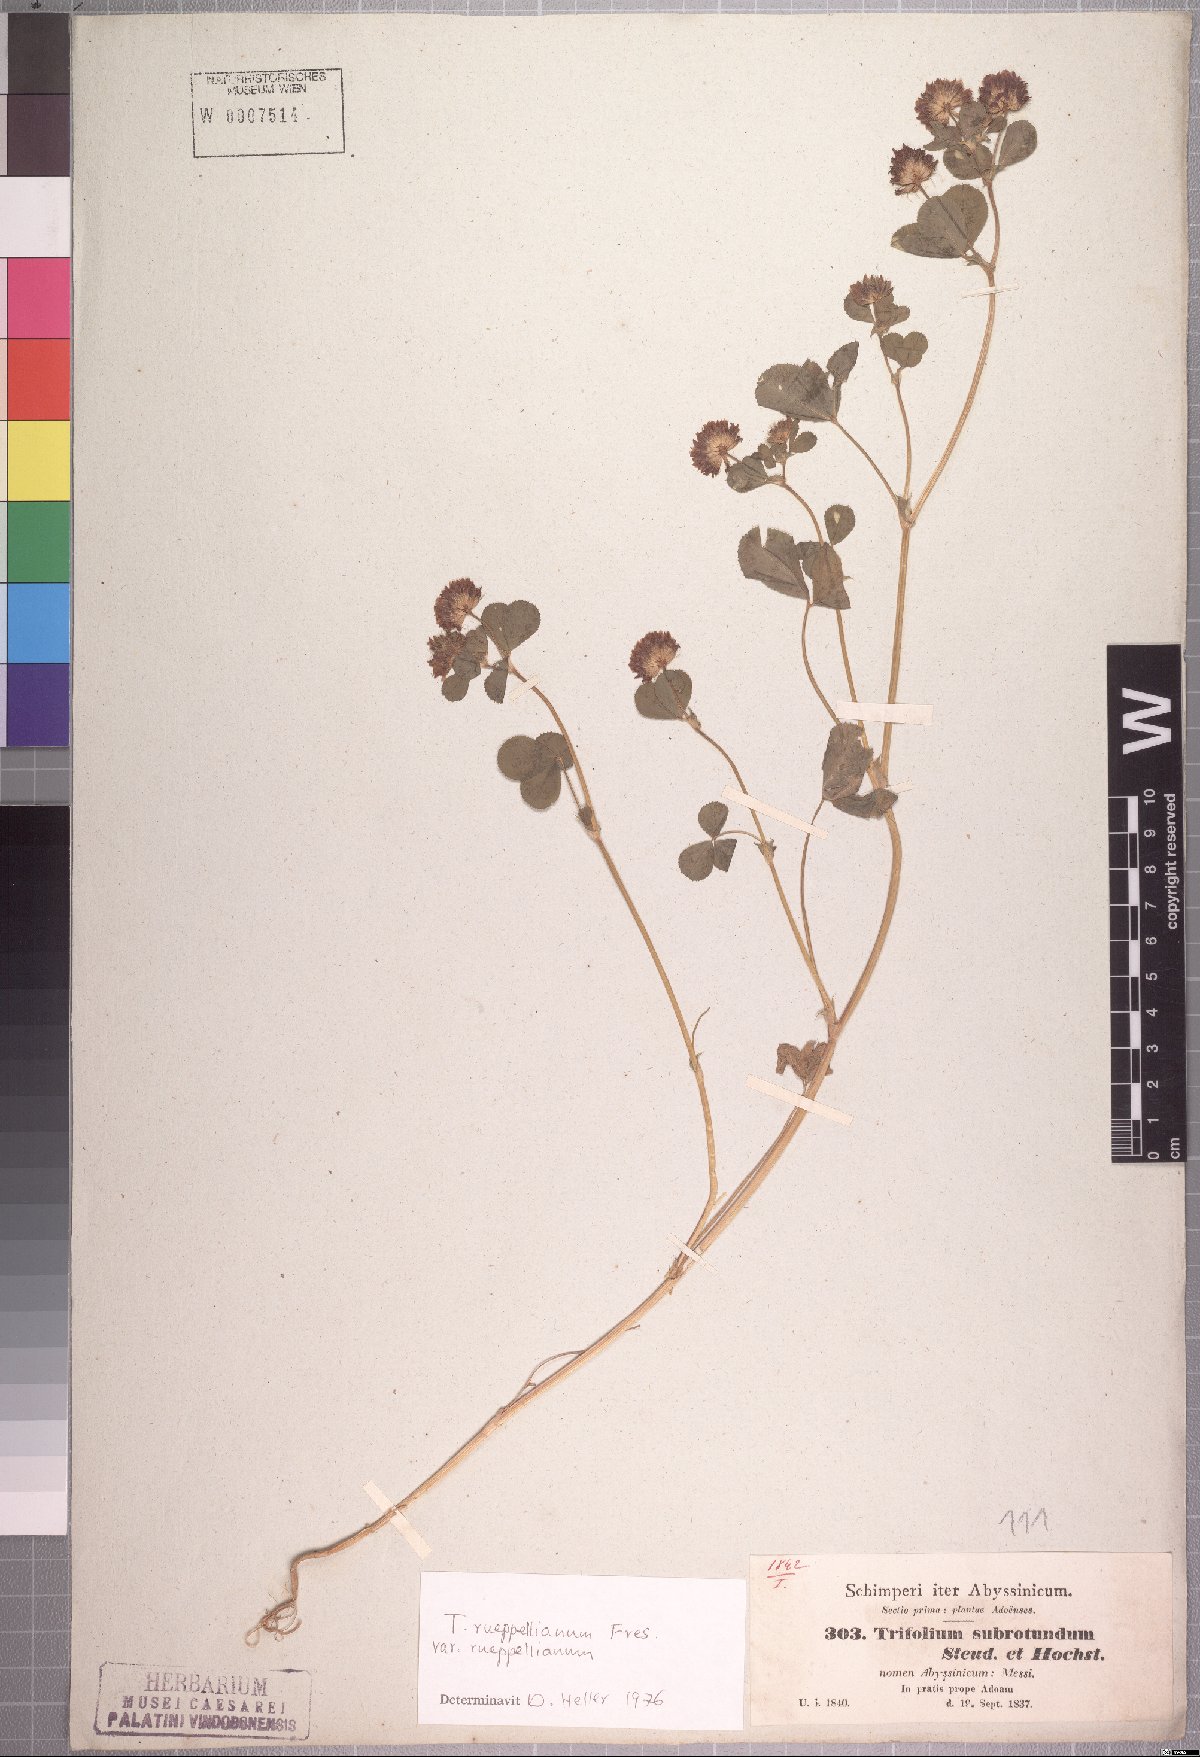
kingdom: Plantae
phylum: Tracheophyta
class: Magnoliopsida
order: Fabales
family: Fabaceae
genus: Trifolium
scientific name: Trifolium rueppellianum
